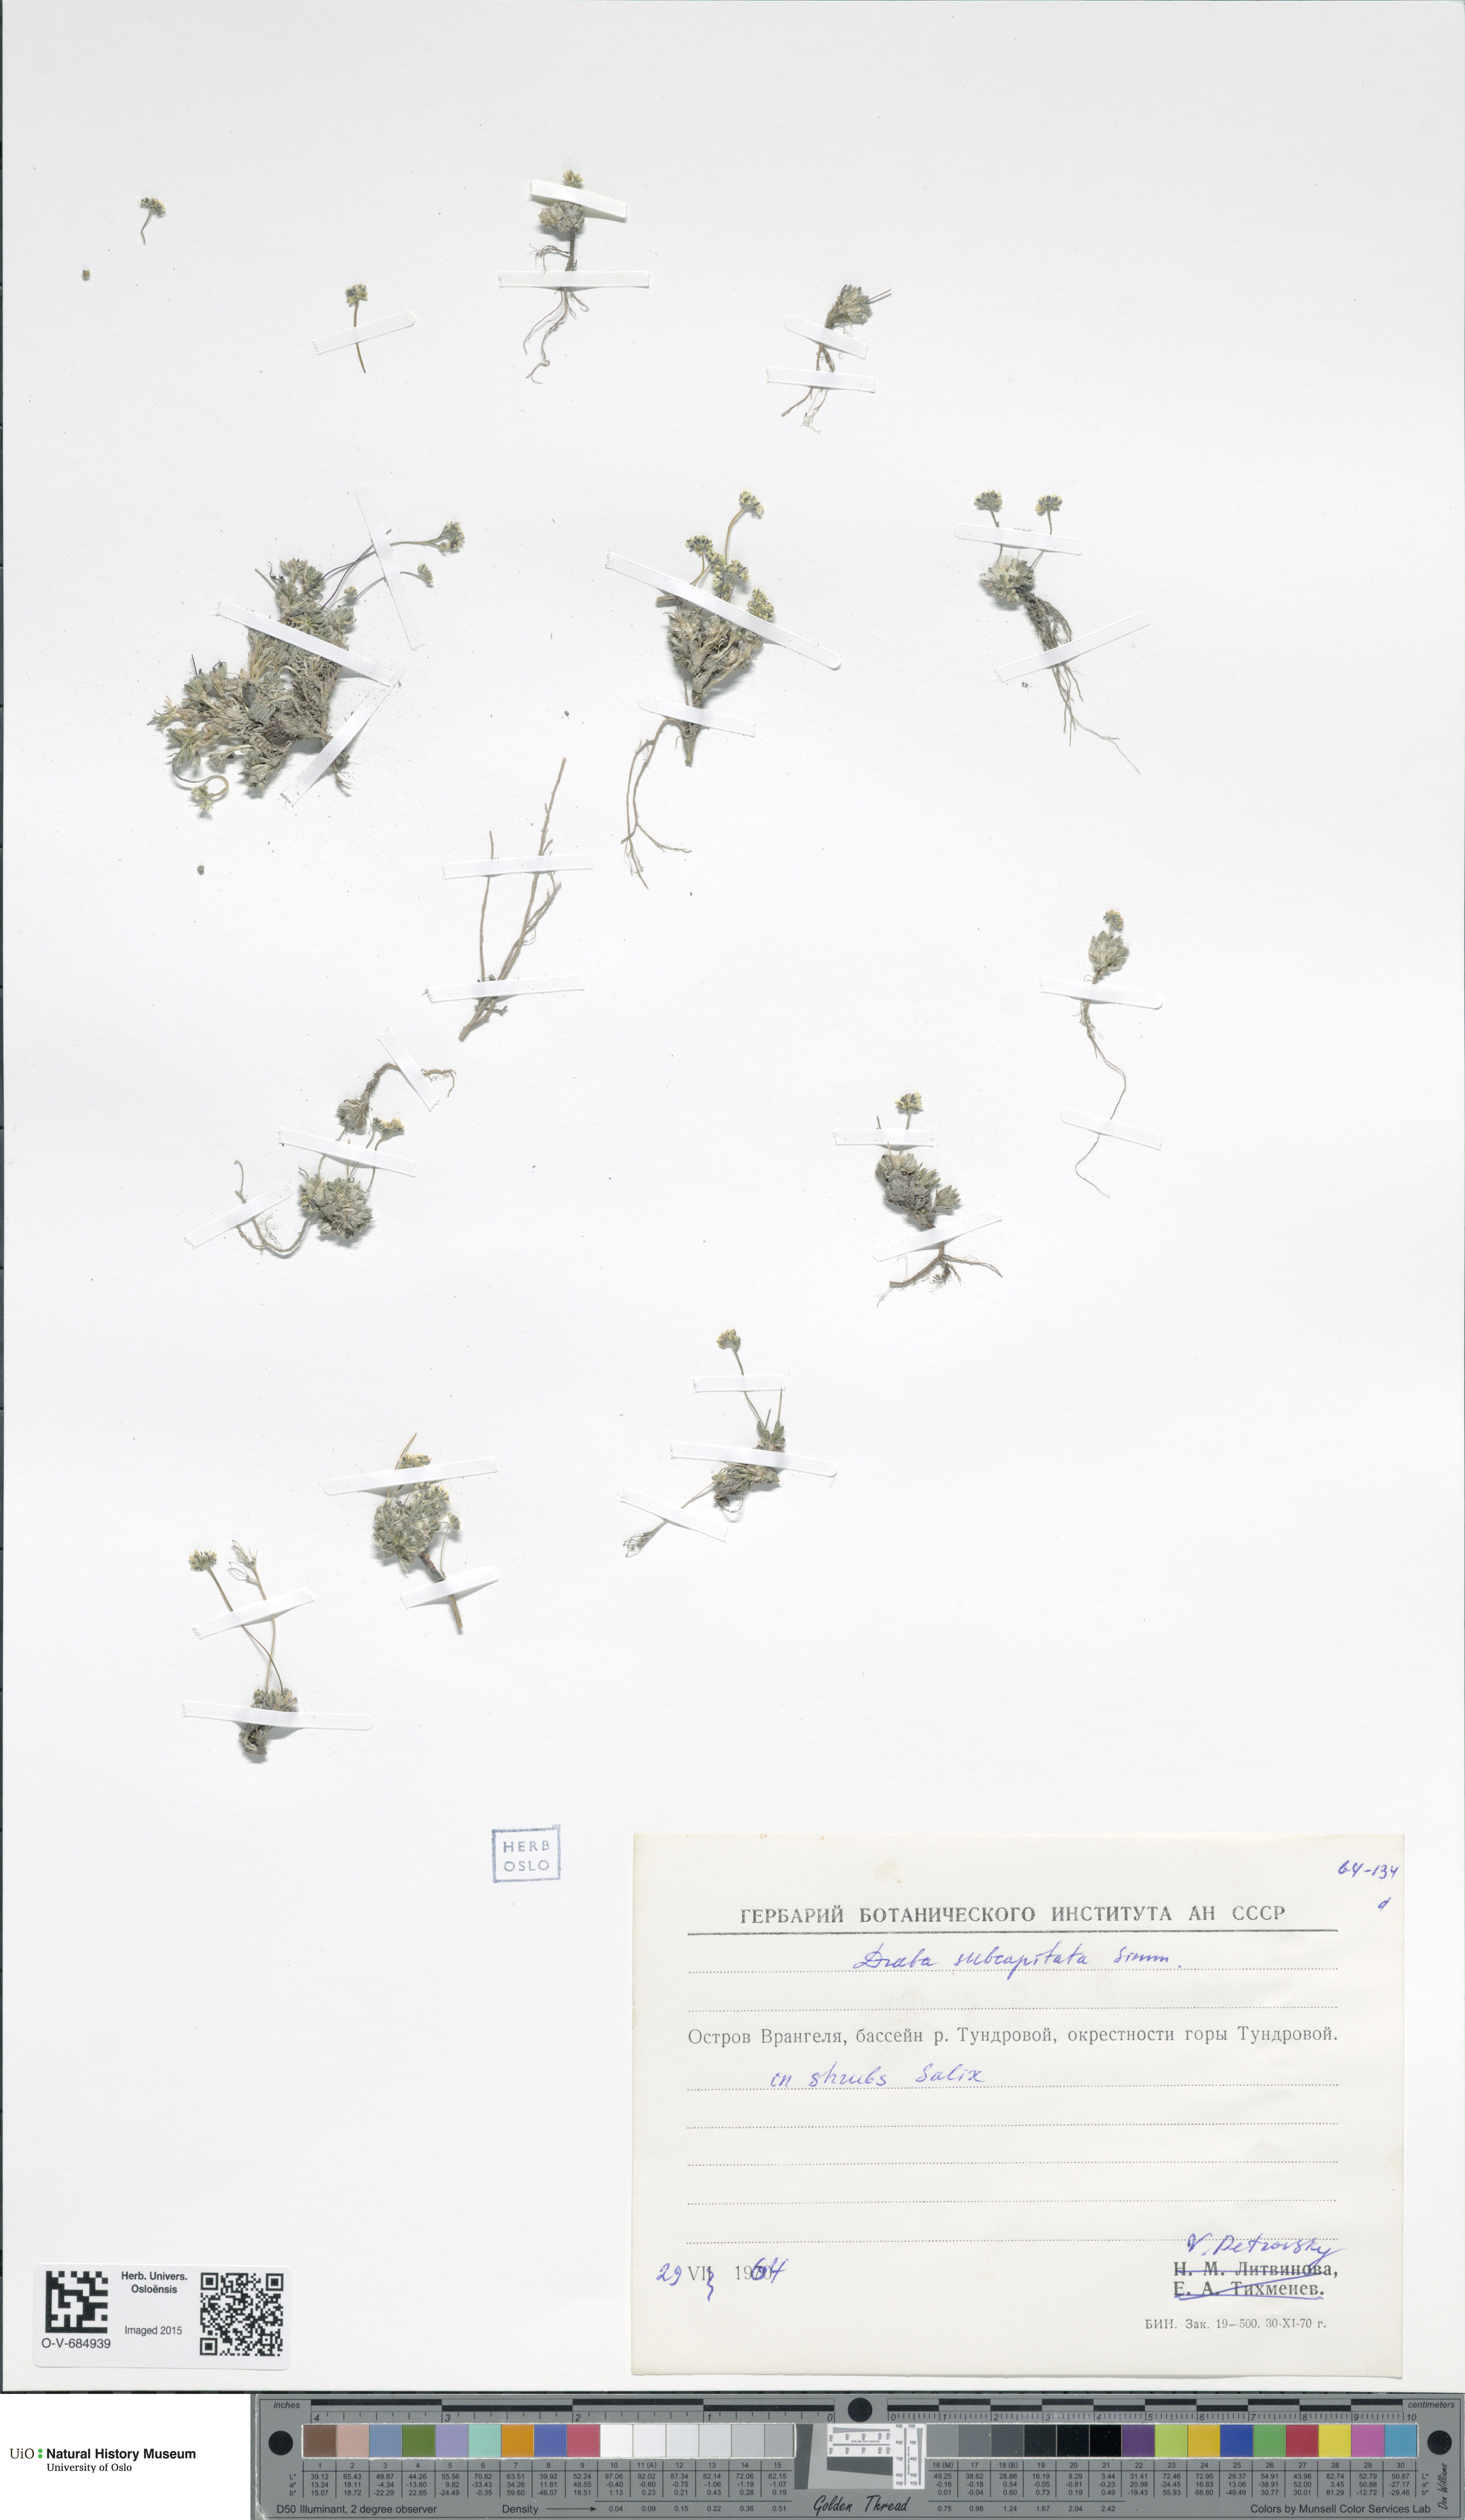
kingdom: Plantae
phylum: Tracheophyta
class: Magnoliopsida
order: Brassicales
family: Brassicaceae
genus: Draba
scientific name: Draba subcapitata
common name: Ellesmere island draba
